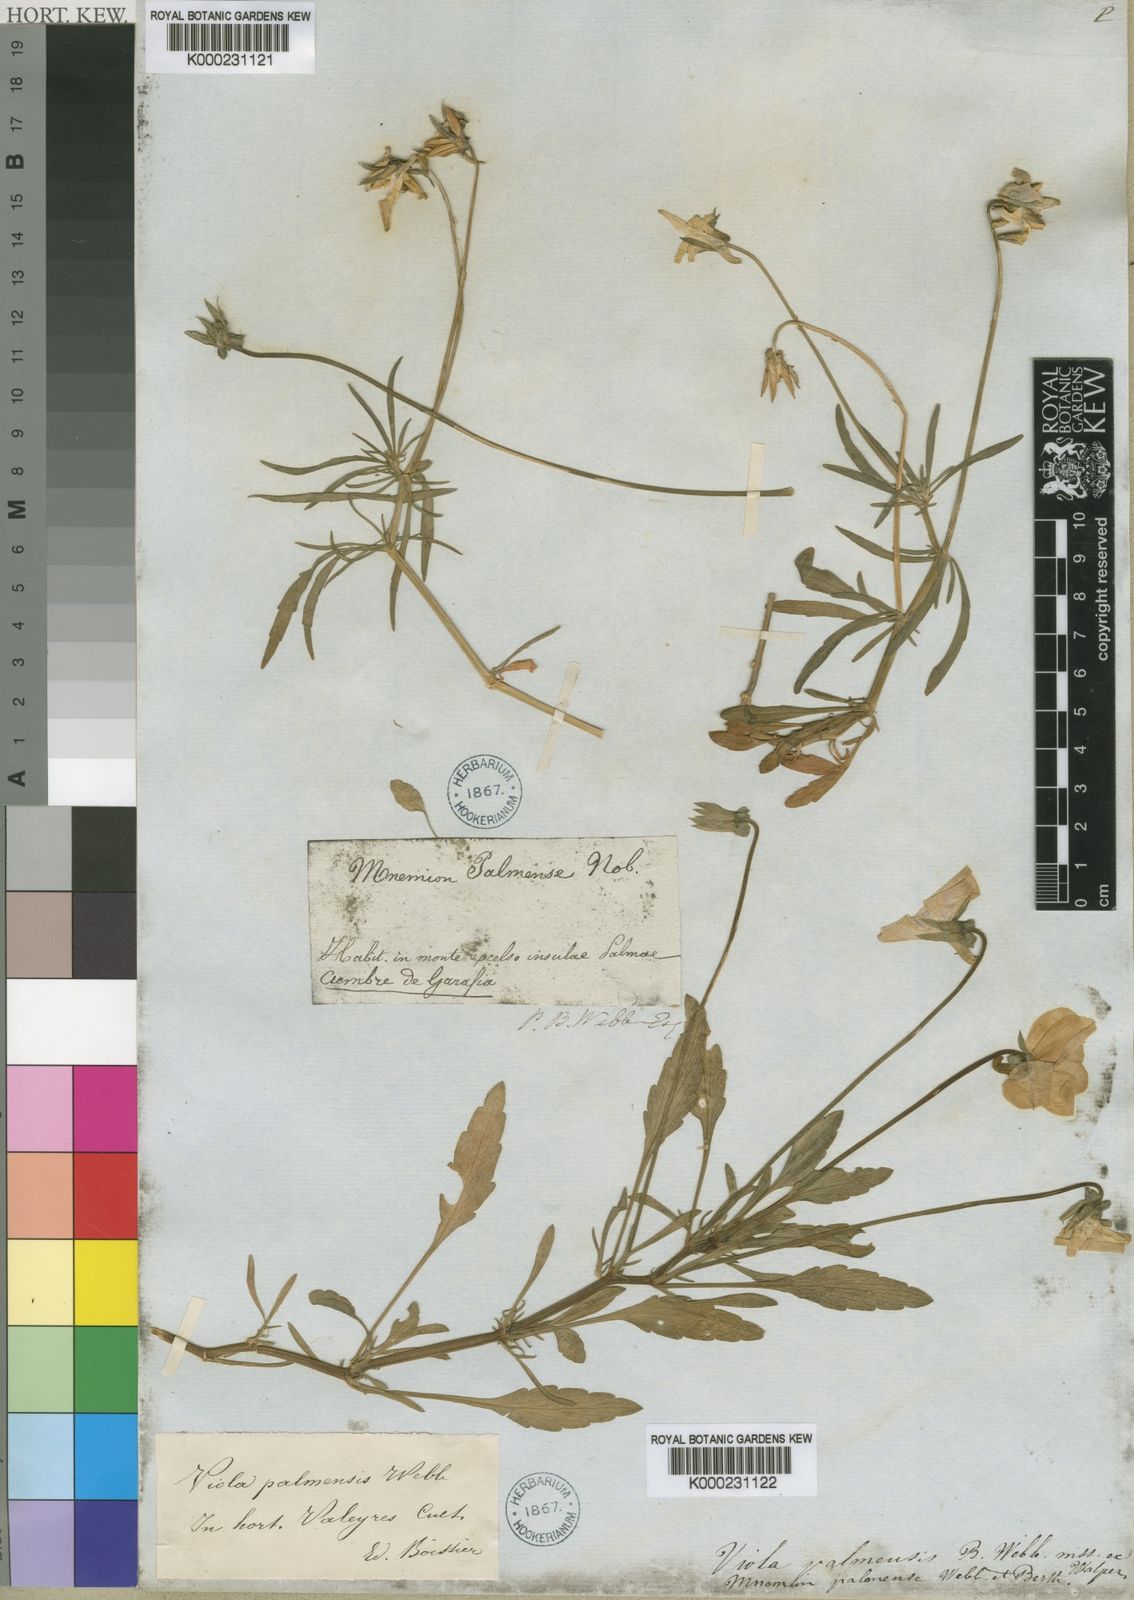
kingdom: Plantae
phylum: Tracheophyta
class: Magnoliopsida
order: Malpighiales
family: Violaceae
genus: Viola
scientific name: Viola palmensis
